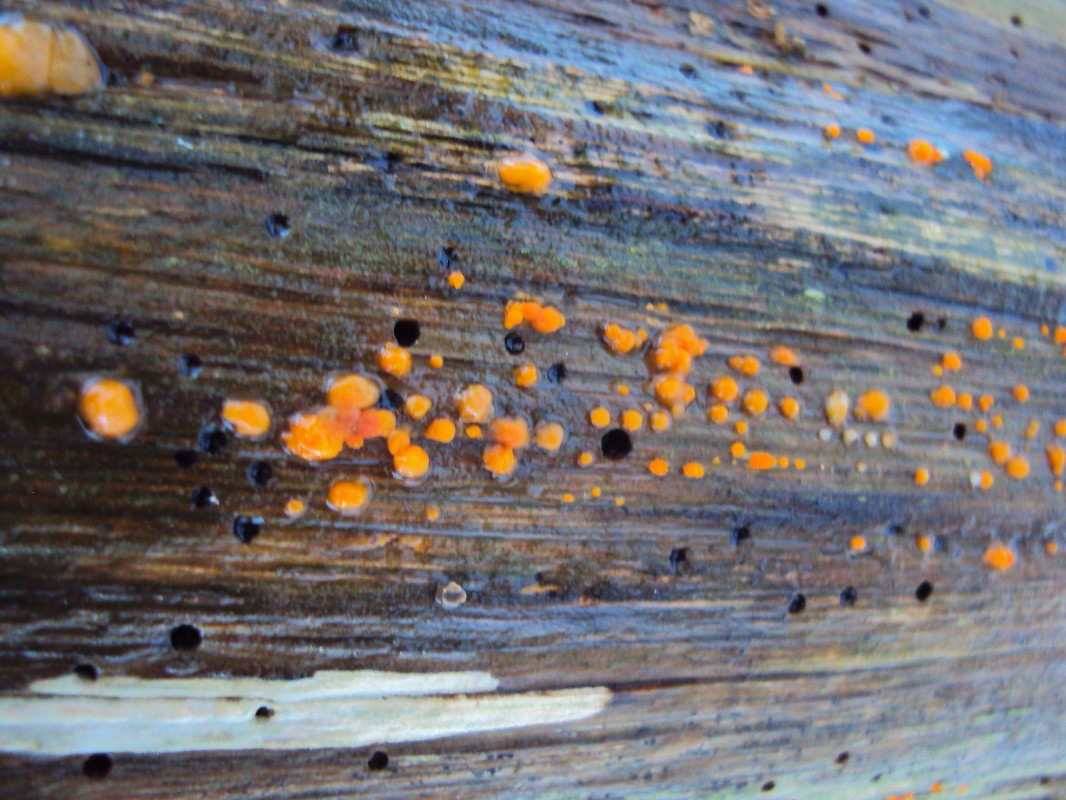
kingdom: Fungi
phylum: Basidiomycota
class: Dacrymycetes
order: Dacrymycetales
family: Dacrymycetaceae
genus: Dacrymyces
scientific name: Dacrymyces stillatus
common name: almindelig tåresvamp
